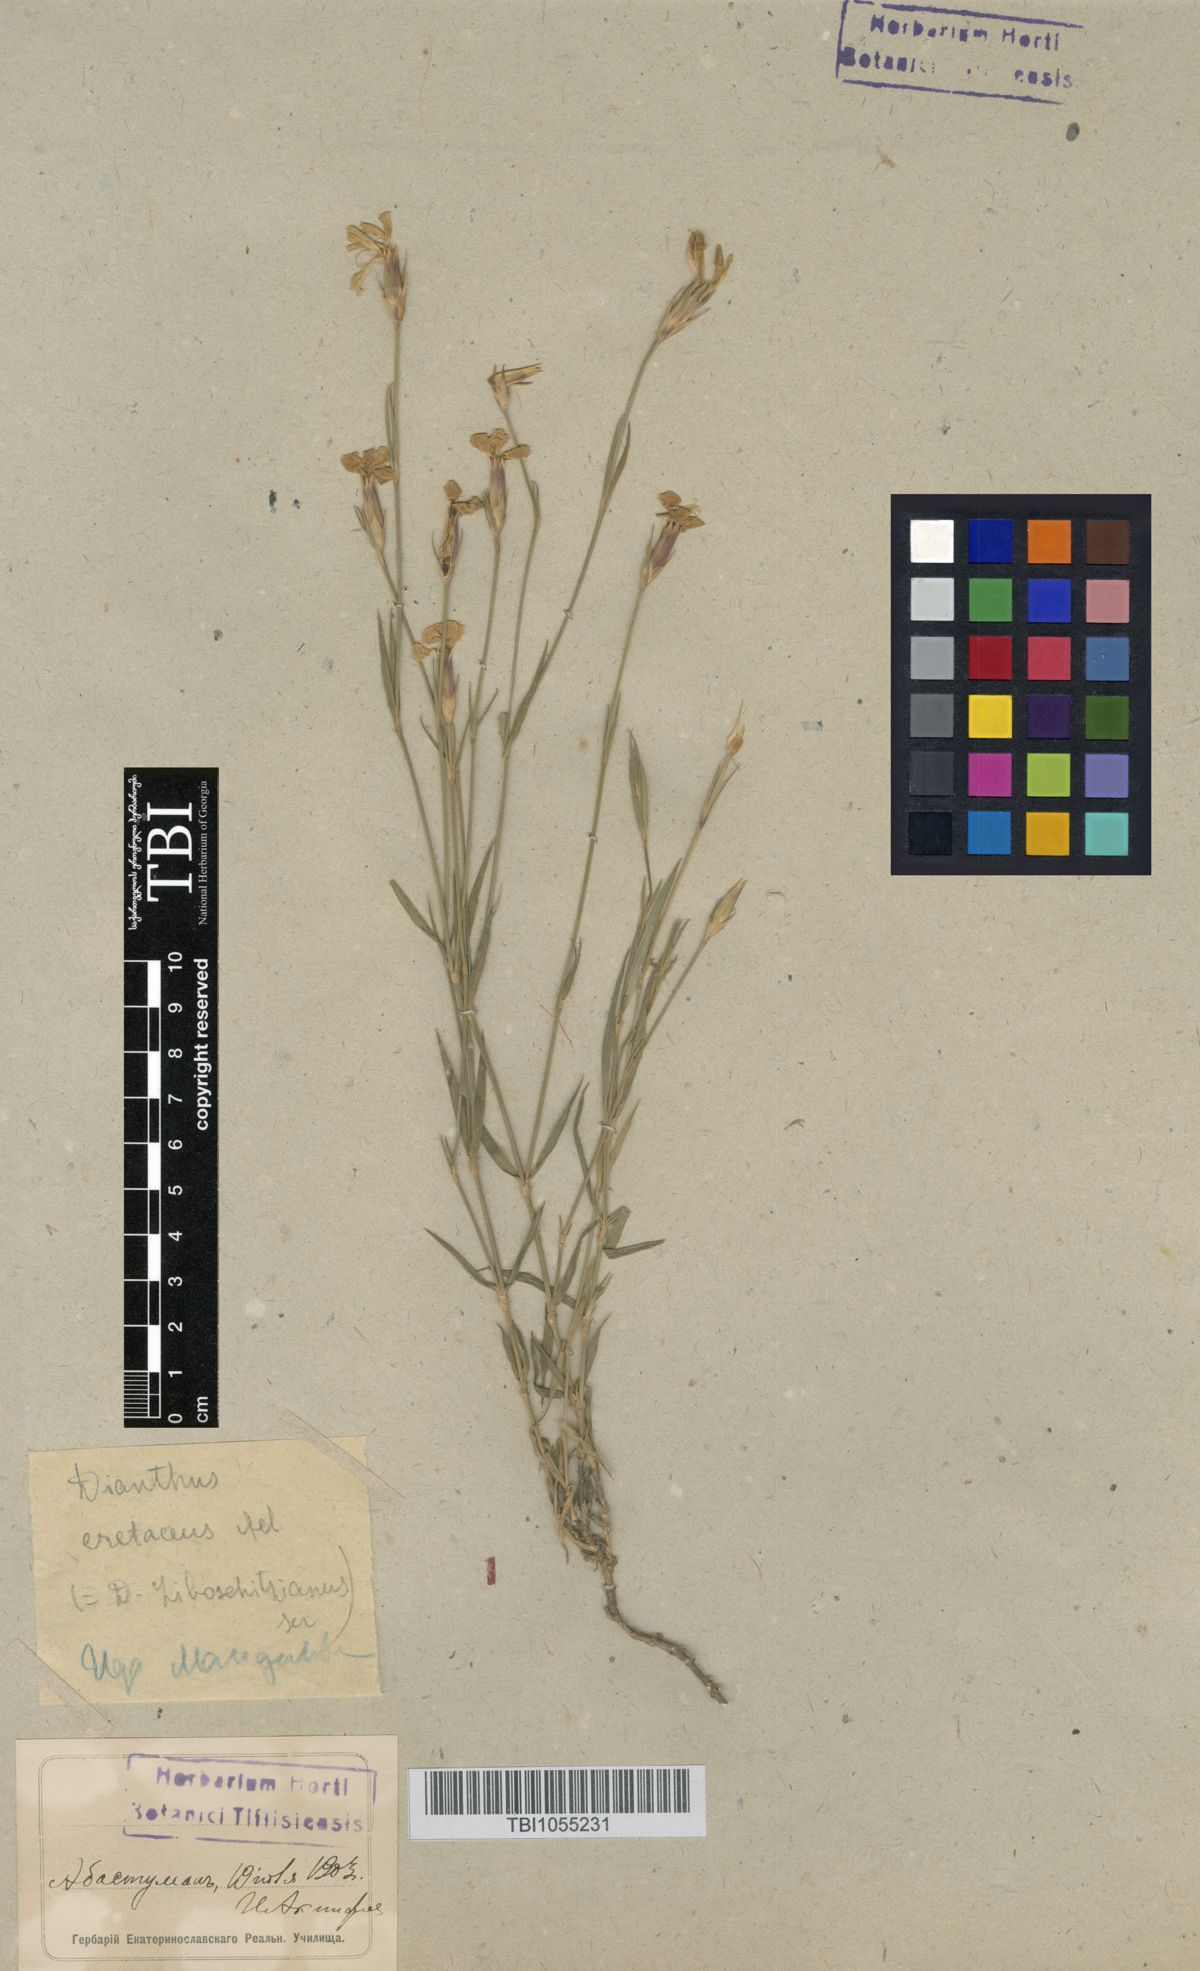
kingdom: Plantae
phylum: Tracheophyta
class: Magnoliopsida
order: Caryophyllales
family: Caryophyllaceae
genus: Dianthus
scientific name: Dianthus cretaceus
